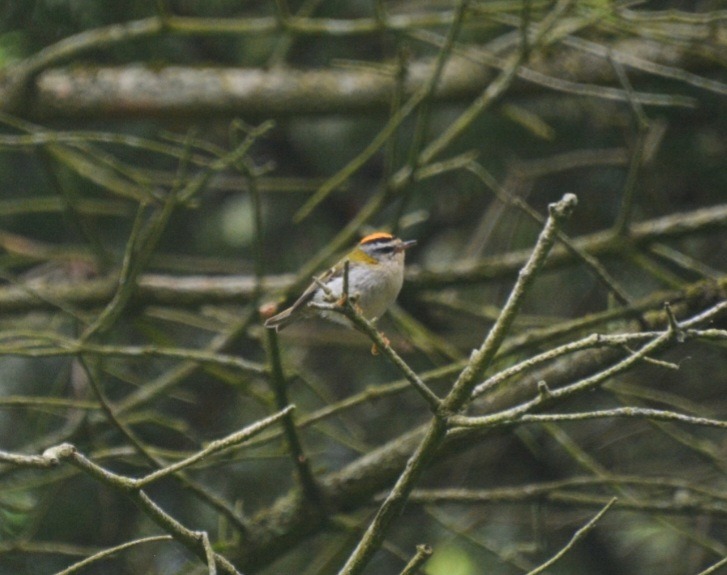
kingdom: Animalia
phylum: Chordata
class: Aves
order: Passeriformes
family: Regulidae
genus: Regulus
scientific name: Regulus ignicapilla
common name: Rødtoppet fuglekonge
